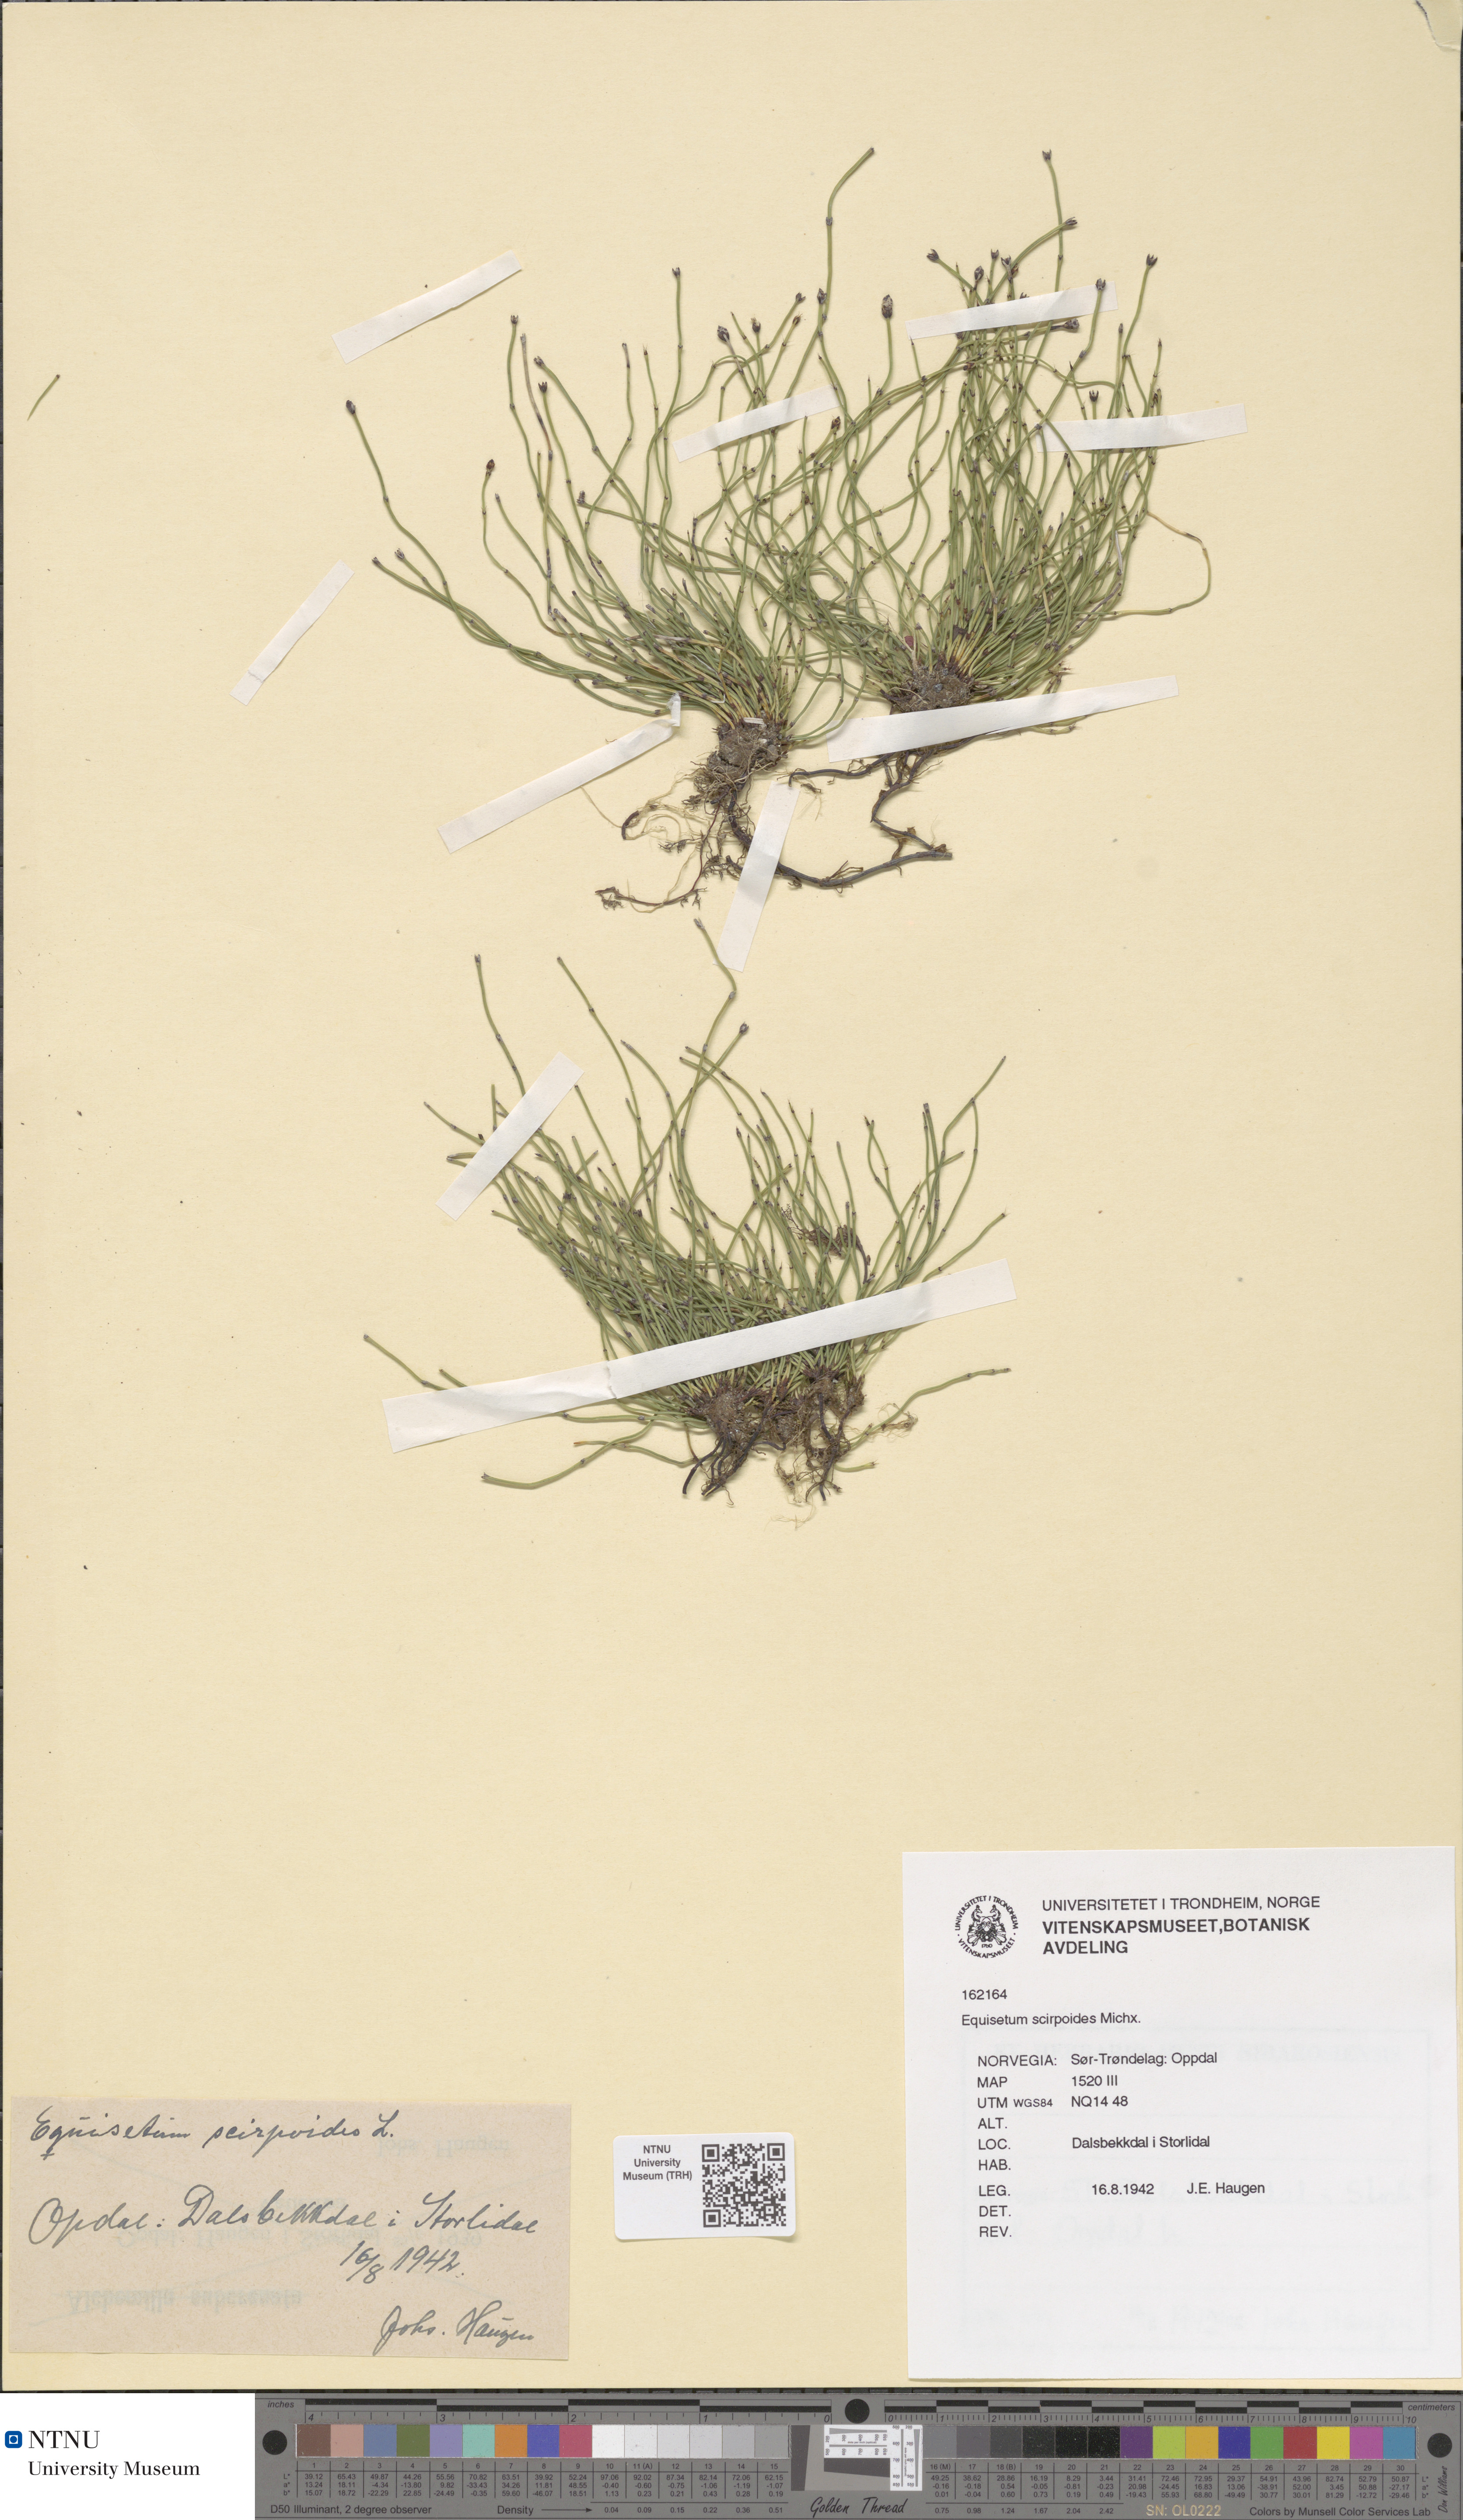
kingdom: Plantae
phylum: Tracheophyta
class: Polypodiopsida
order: Equisetales
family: Equisetaceae
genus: Equisetum
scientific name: Equisetum scirpoides
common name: Delicate horsetail
